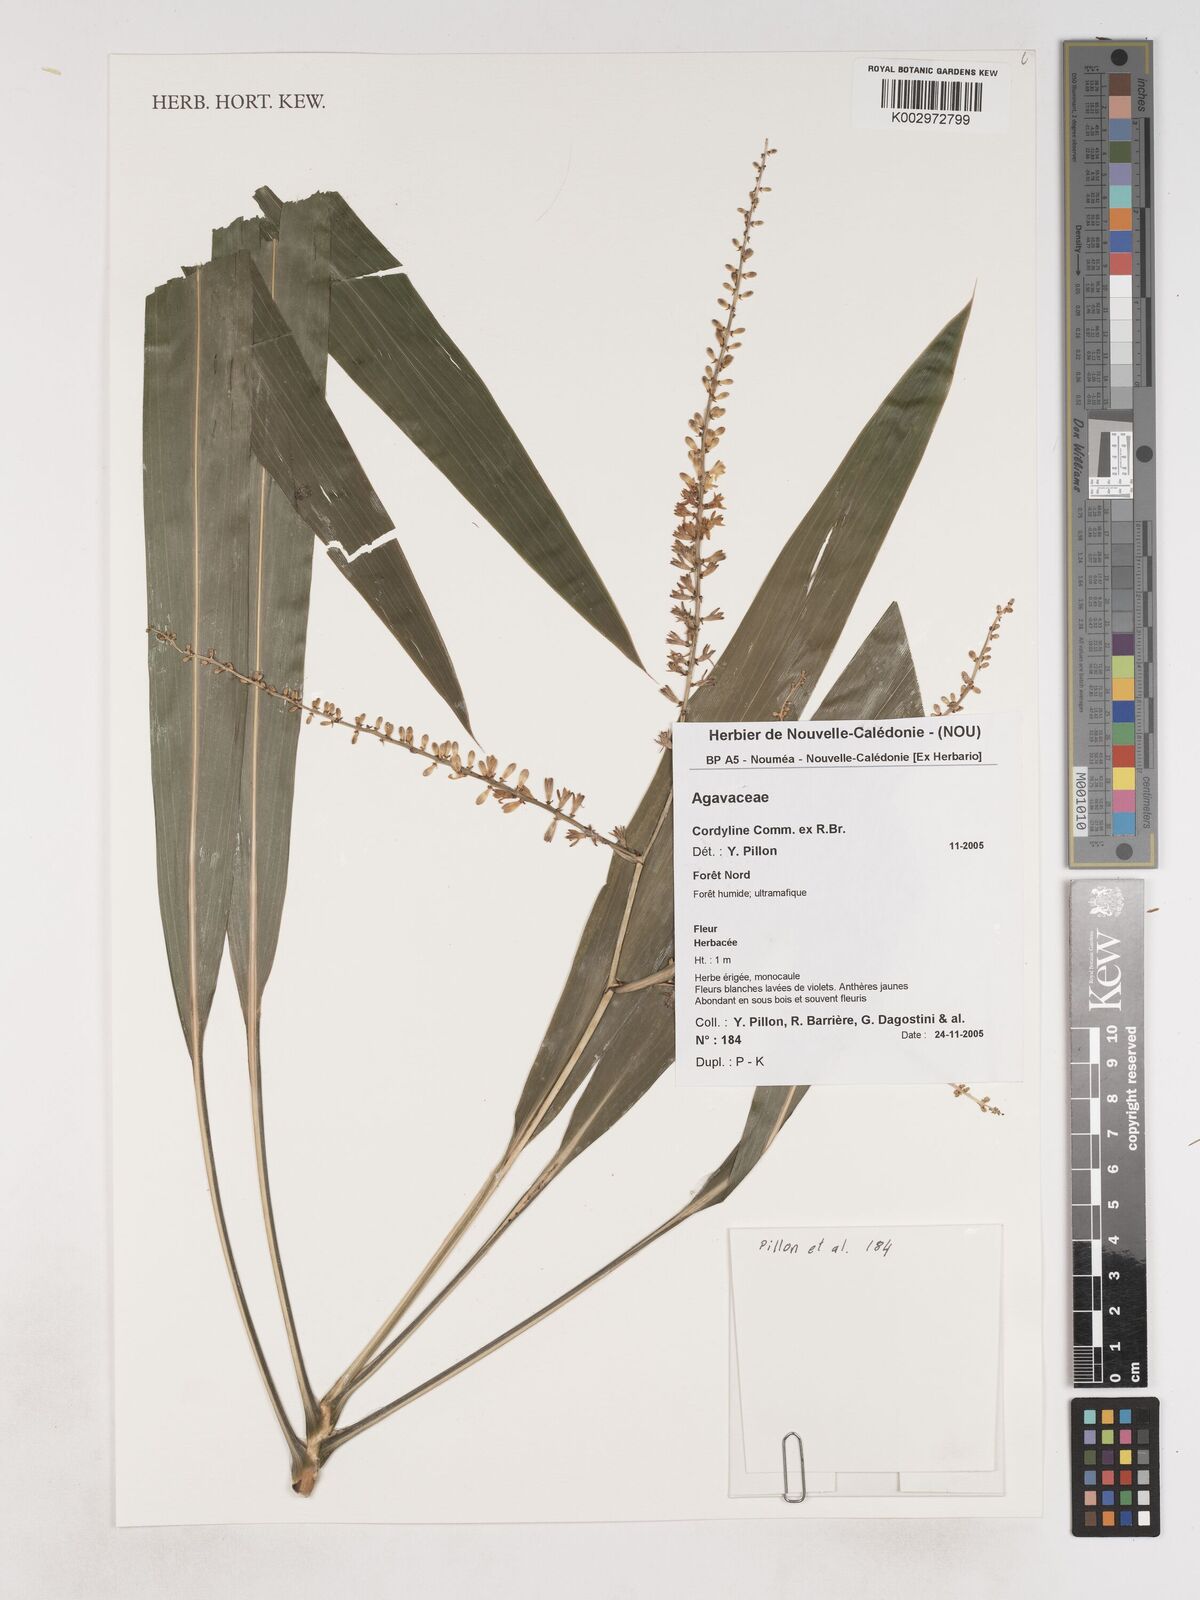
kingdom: Plantae
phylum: Tracheophyta
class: Liliopsida
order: Asparagales
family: Asparagaceae
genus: Cordyline
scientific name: Cordyline
